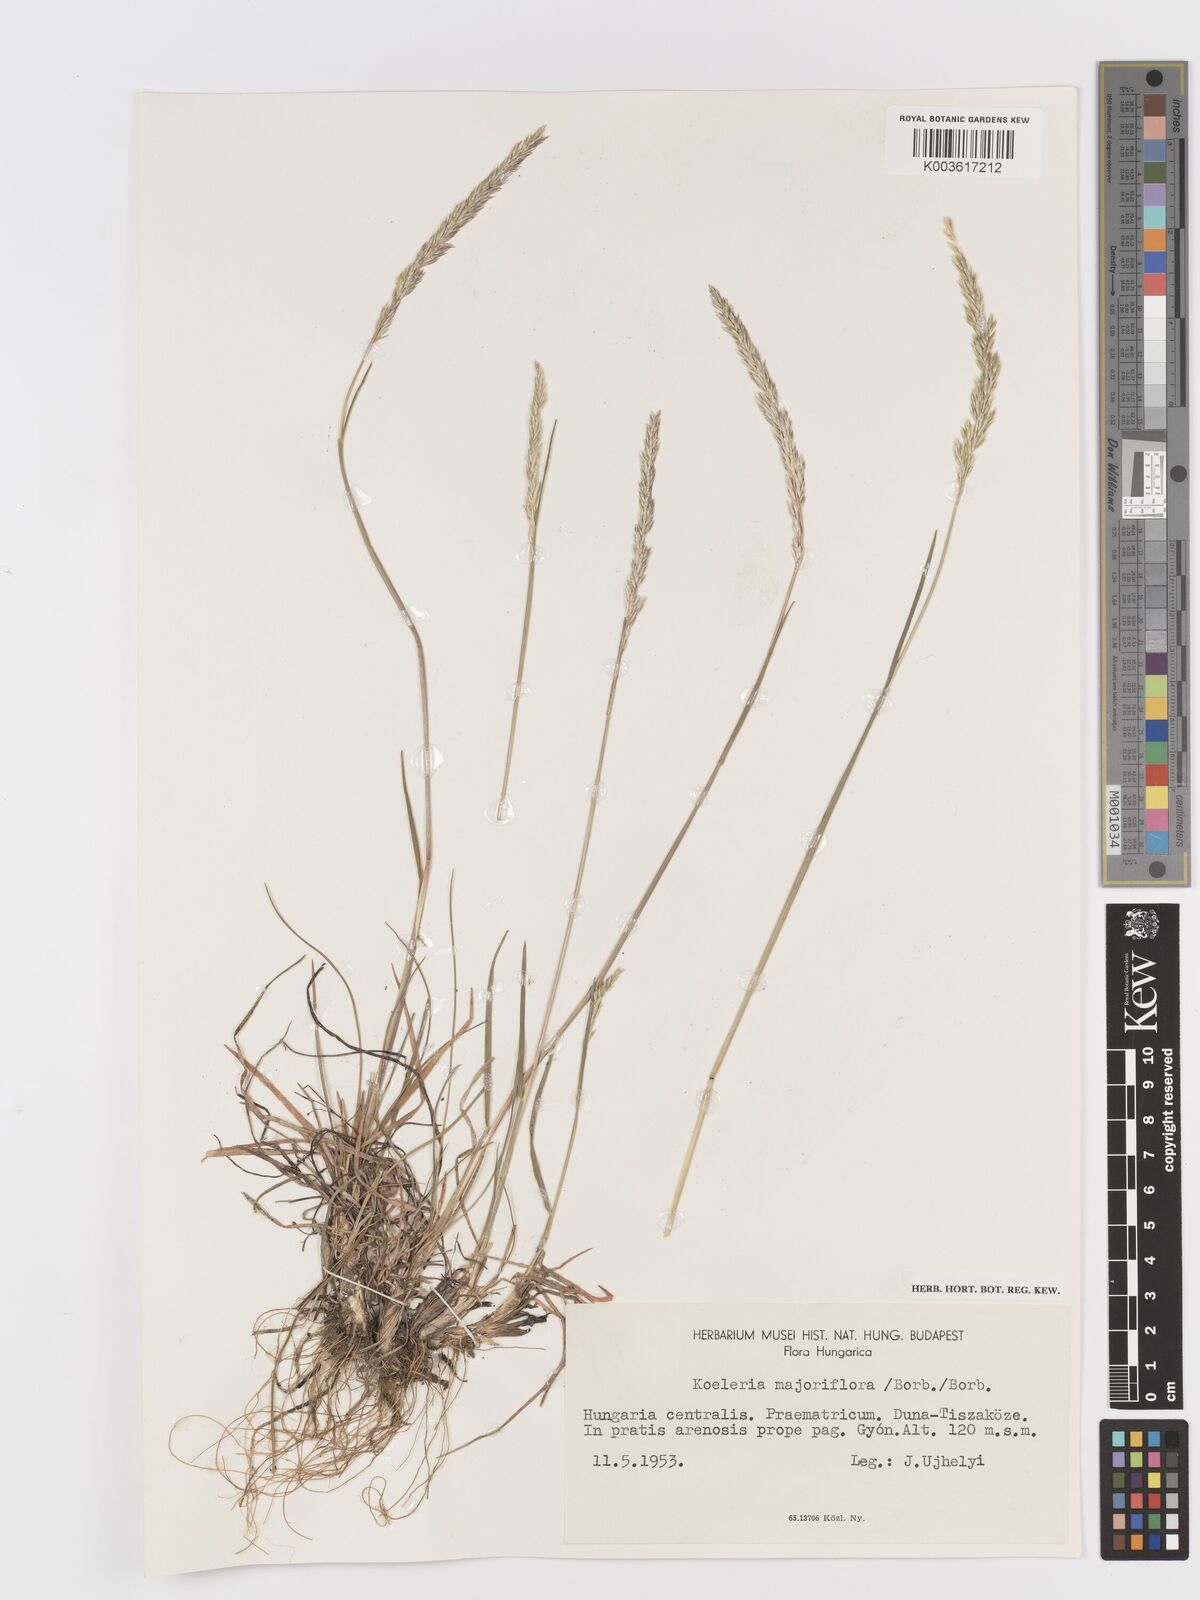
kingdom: Plantae
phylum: Tracheophyta
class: Liliopsida
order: Poales
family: Poaceae
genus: Koeleria
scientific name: Koeleria macrantha
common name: Crested hair-grass
